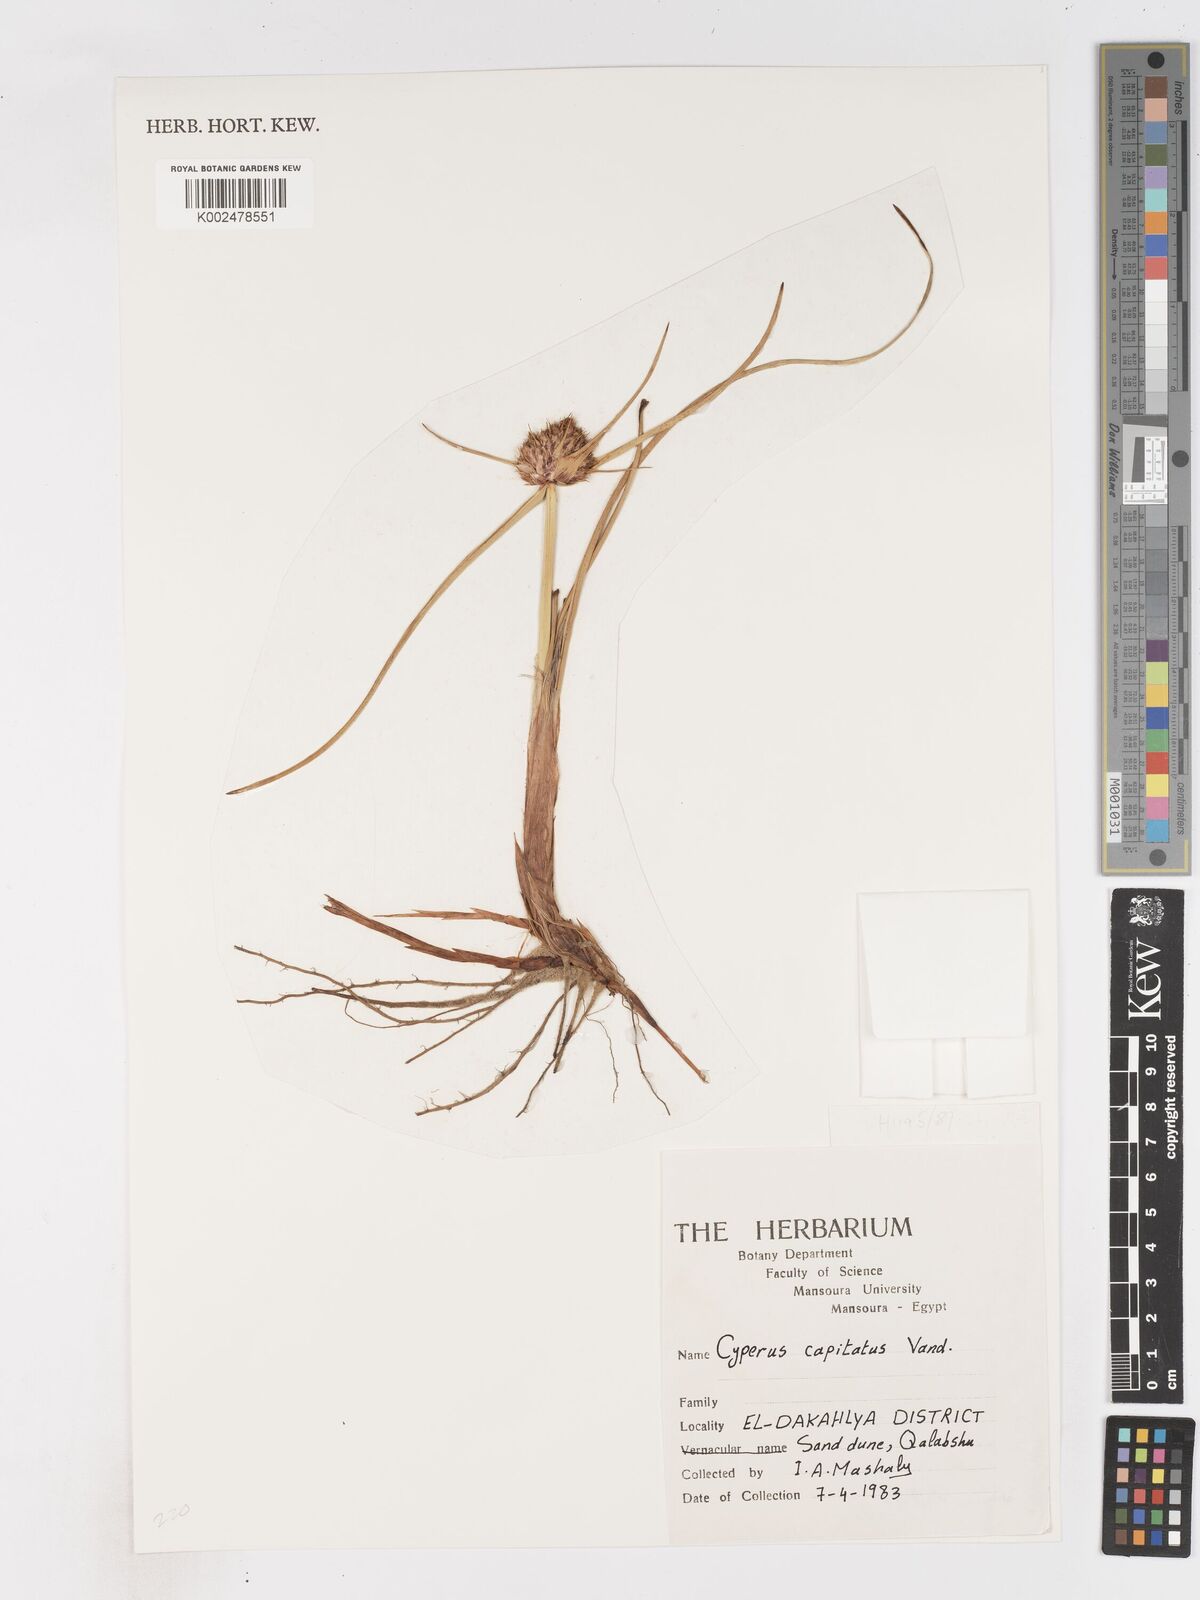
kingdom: Plantae
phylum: Tracheophyta
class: Liliopsida
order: Poales
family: Cyperaceae
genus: Cyperus
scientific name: Cyperus capitatus
